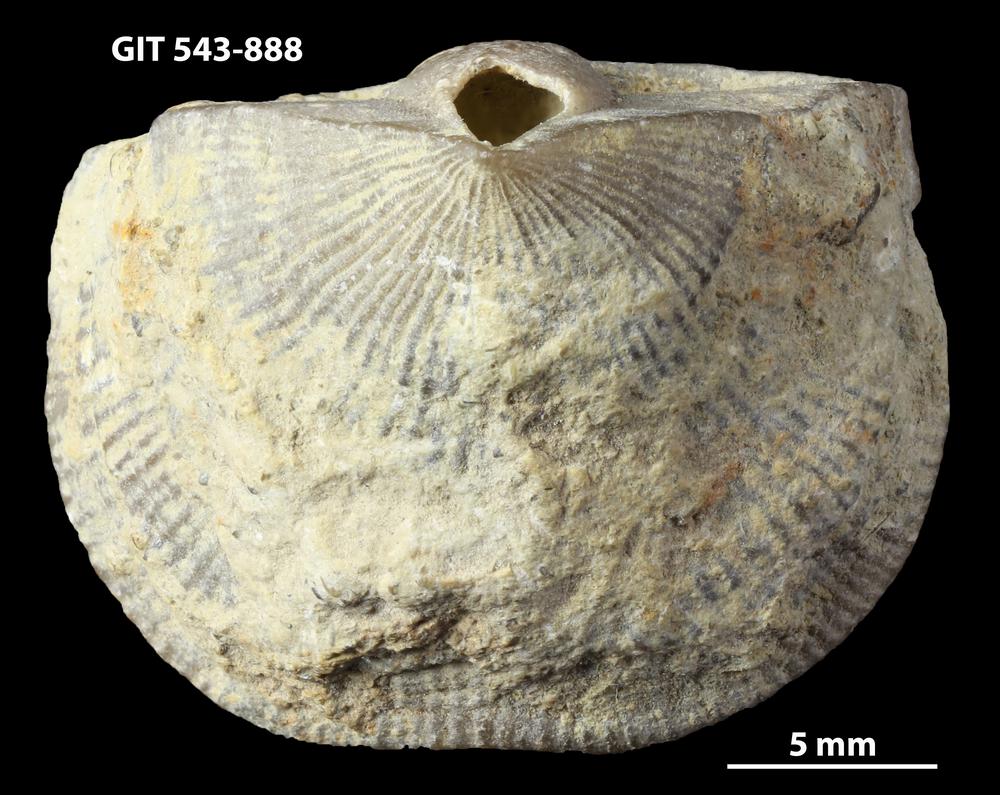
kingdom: Animalia
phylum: Brachiopoda
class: Rhynchonellata
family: Clitambonitidae
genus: Vellamo
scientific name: Vellamo oandoensis
